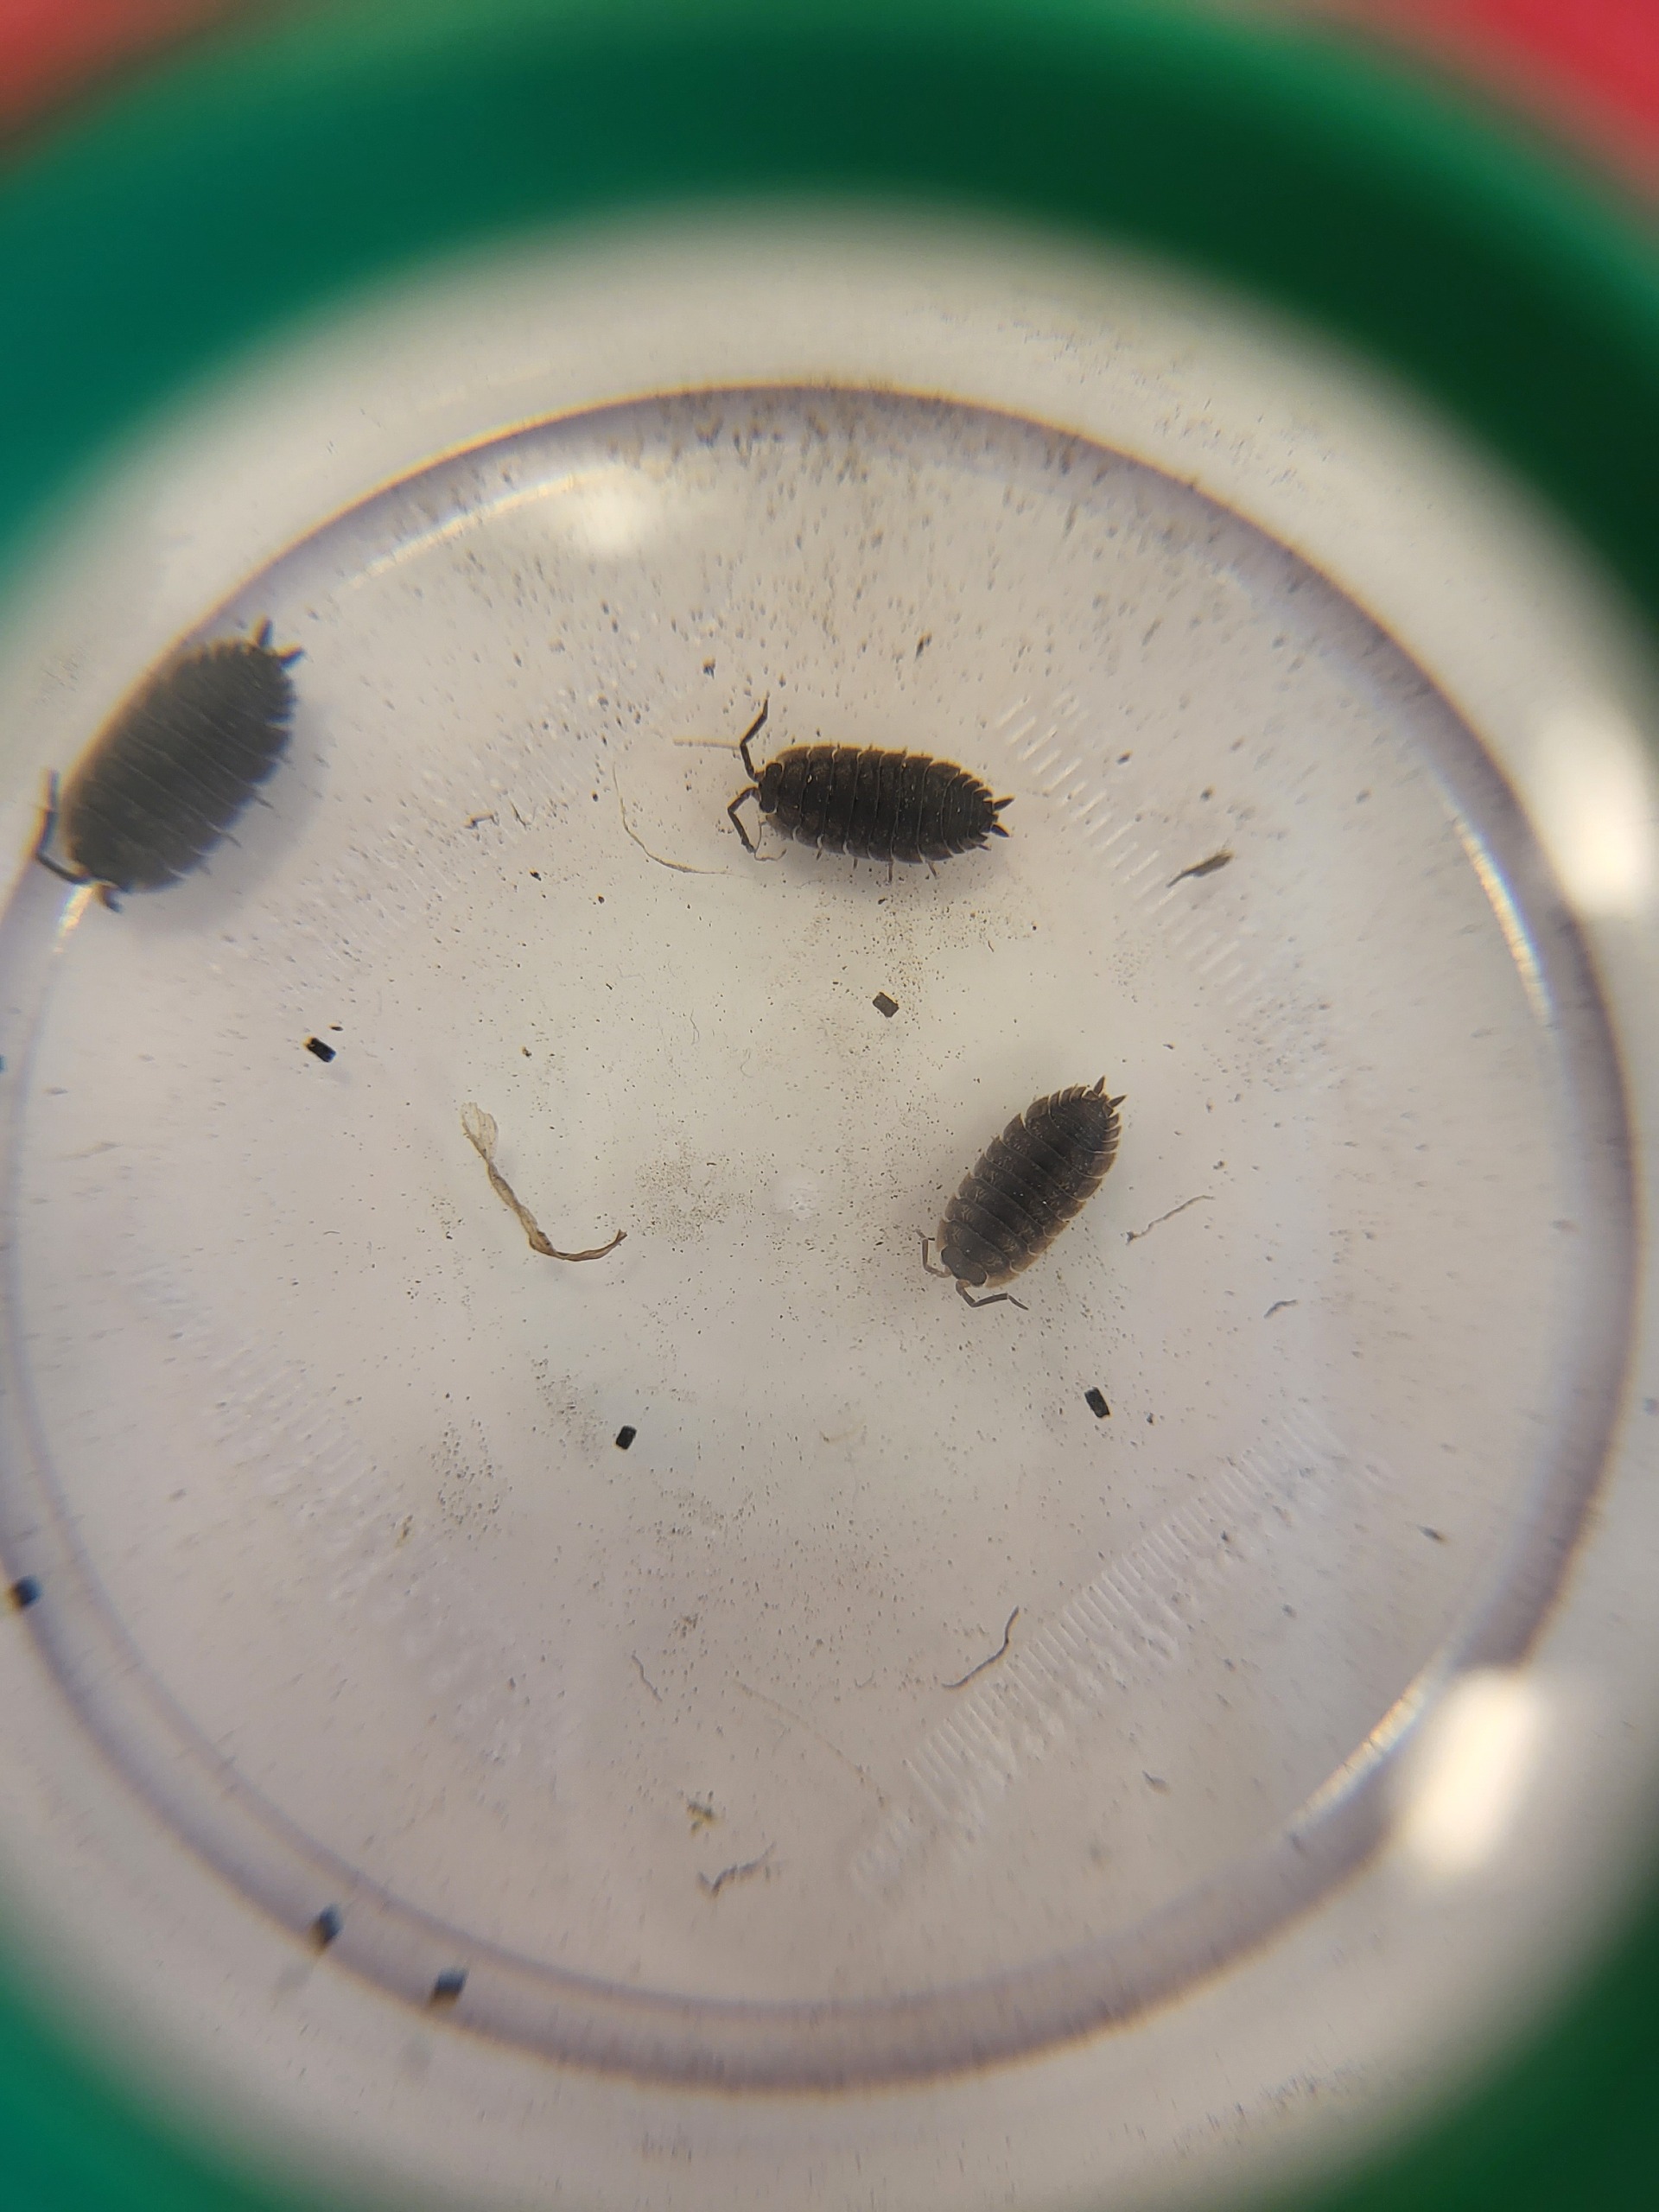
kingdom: Animalia
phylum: Arthropoda
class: Malacostraca
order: Isopoda
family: Oniscidae
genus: Oniscus
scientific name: Oniscus asellus
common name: Glat bænkebider
